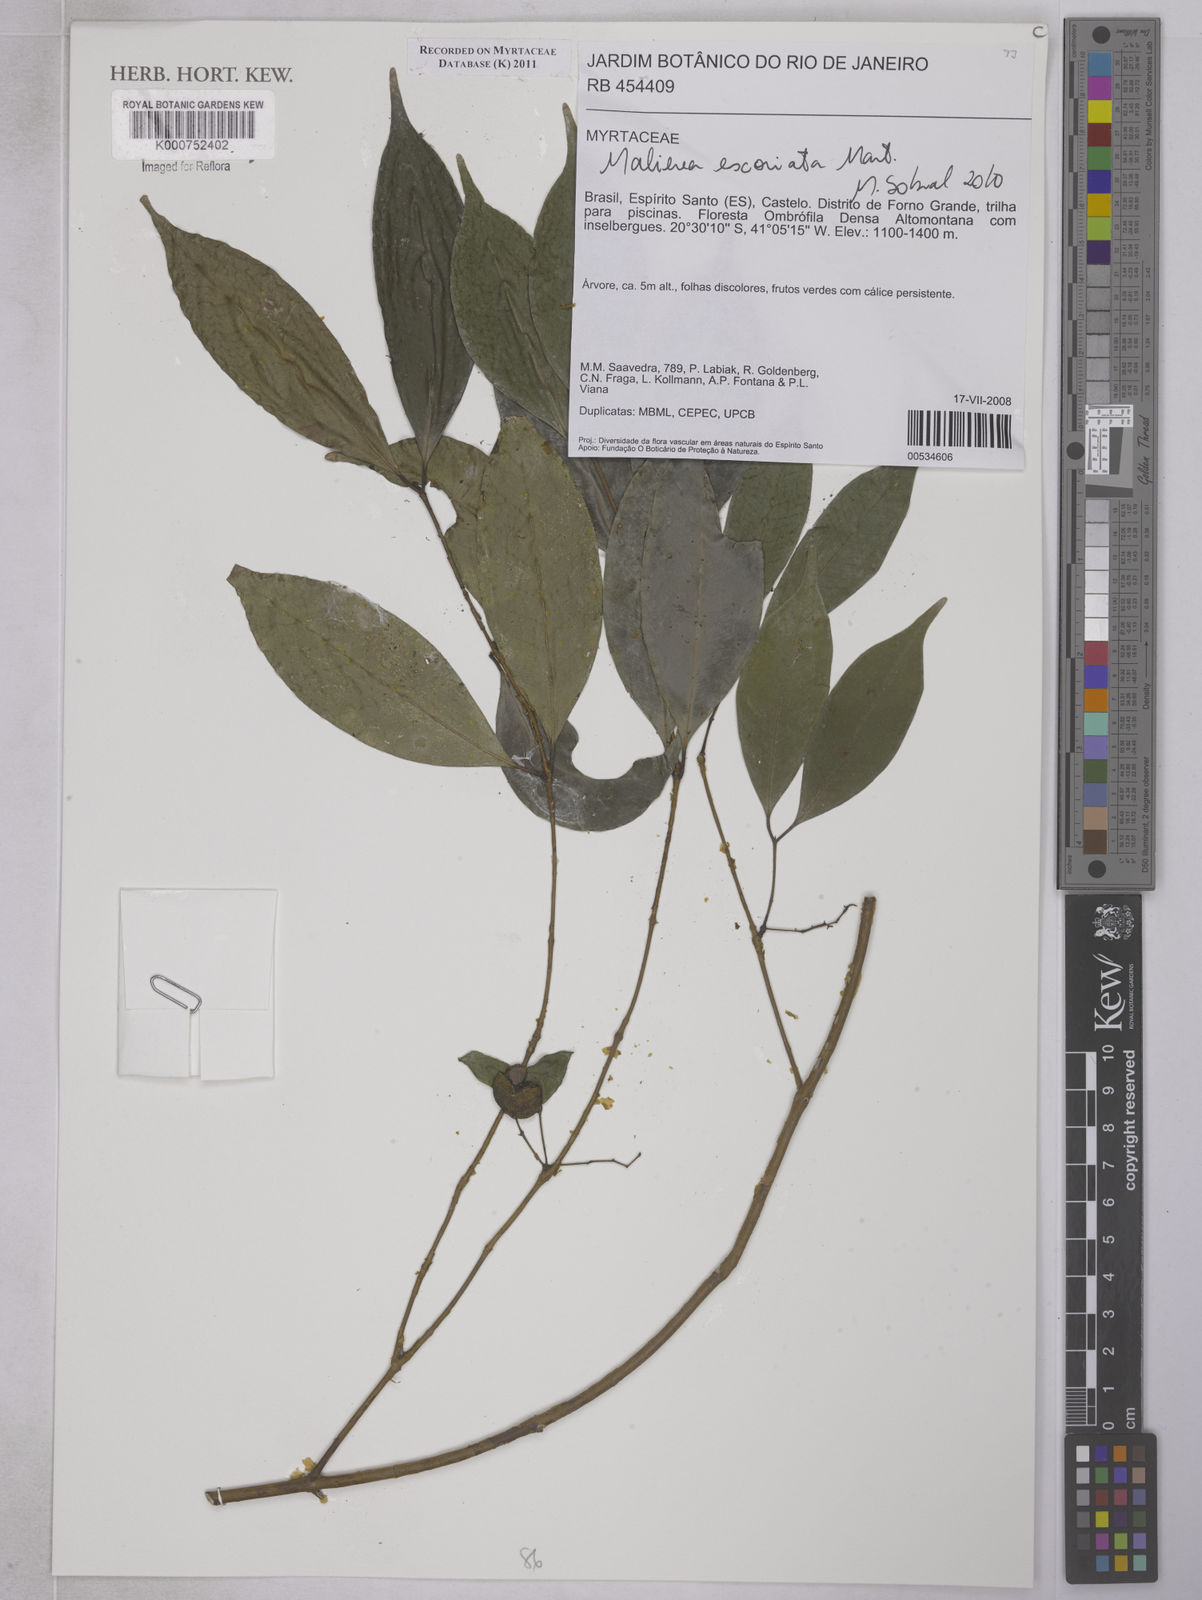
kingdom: Plantae
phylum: Tracheophyta
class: Magnoliopsida
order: Myrtales
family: Myrtaceae
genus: Myrcia
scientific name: Myrcia excoriata
